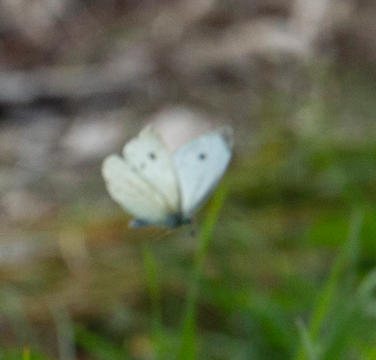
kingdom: Animalia
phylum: Arthropoda
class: Insecta
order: Lepidoptera
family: Pieridae
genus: Pieris
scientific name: Pieris rapae
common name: Cabbage White
